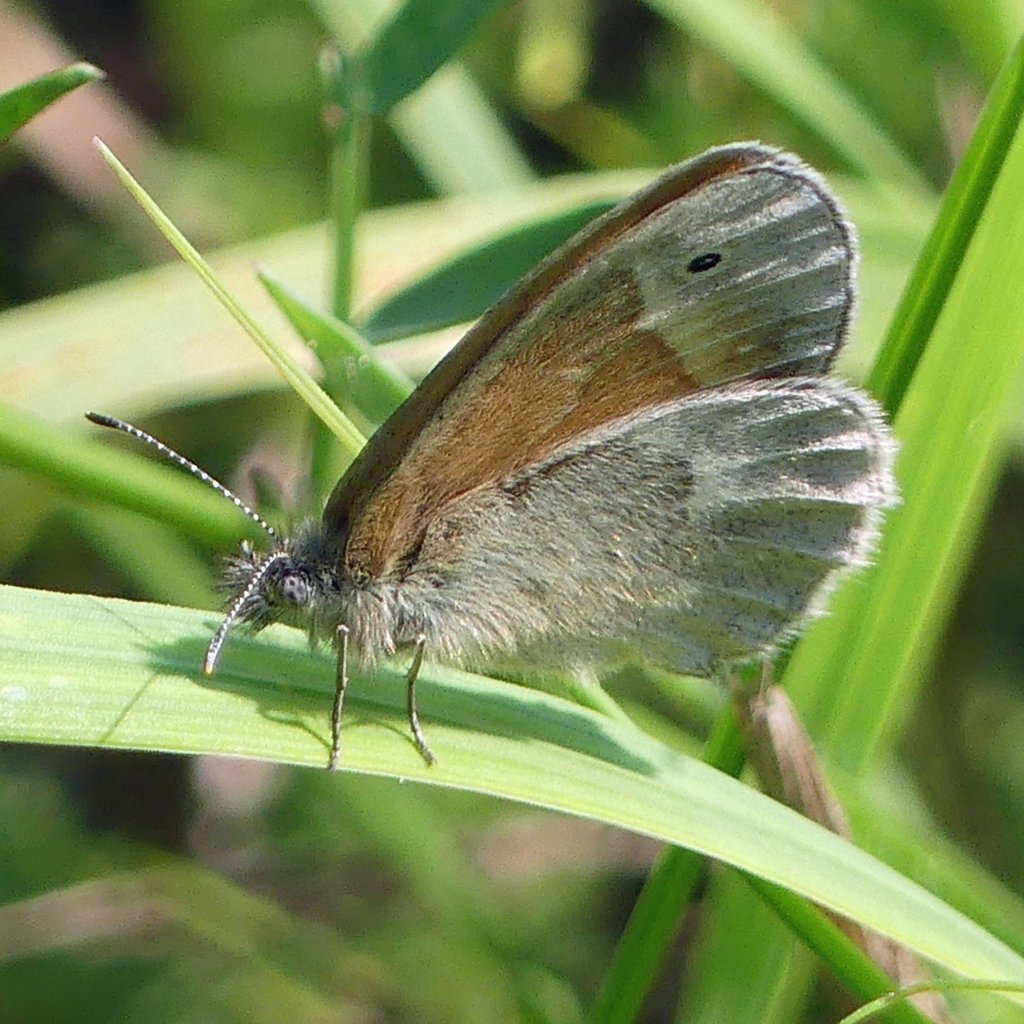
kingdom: Animalia
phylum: Arthropoda
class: Insecta
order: Lepidoptera
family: Nymphalidae
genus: Coenonympha
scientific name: Coenonympha tullia
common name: Large Heath
